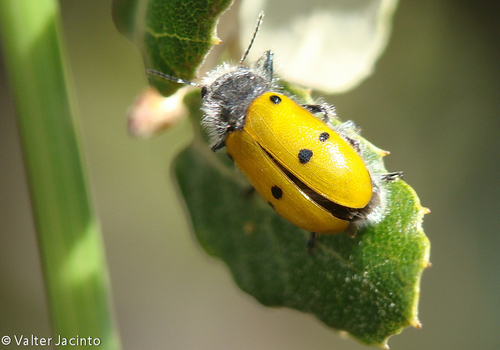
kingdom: Animalia
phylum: Arthropoda
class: Insecta
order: Coleoptera
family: Chrysomelidae
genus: Lachnaia
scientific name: Lachnaia cylindrica
